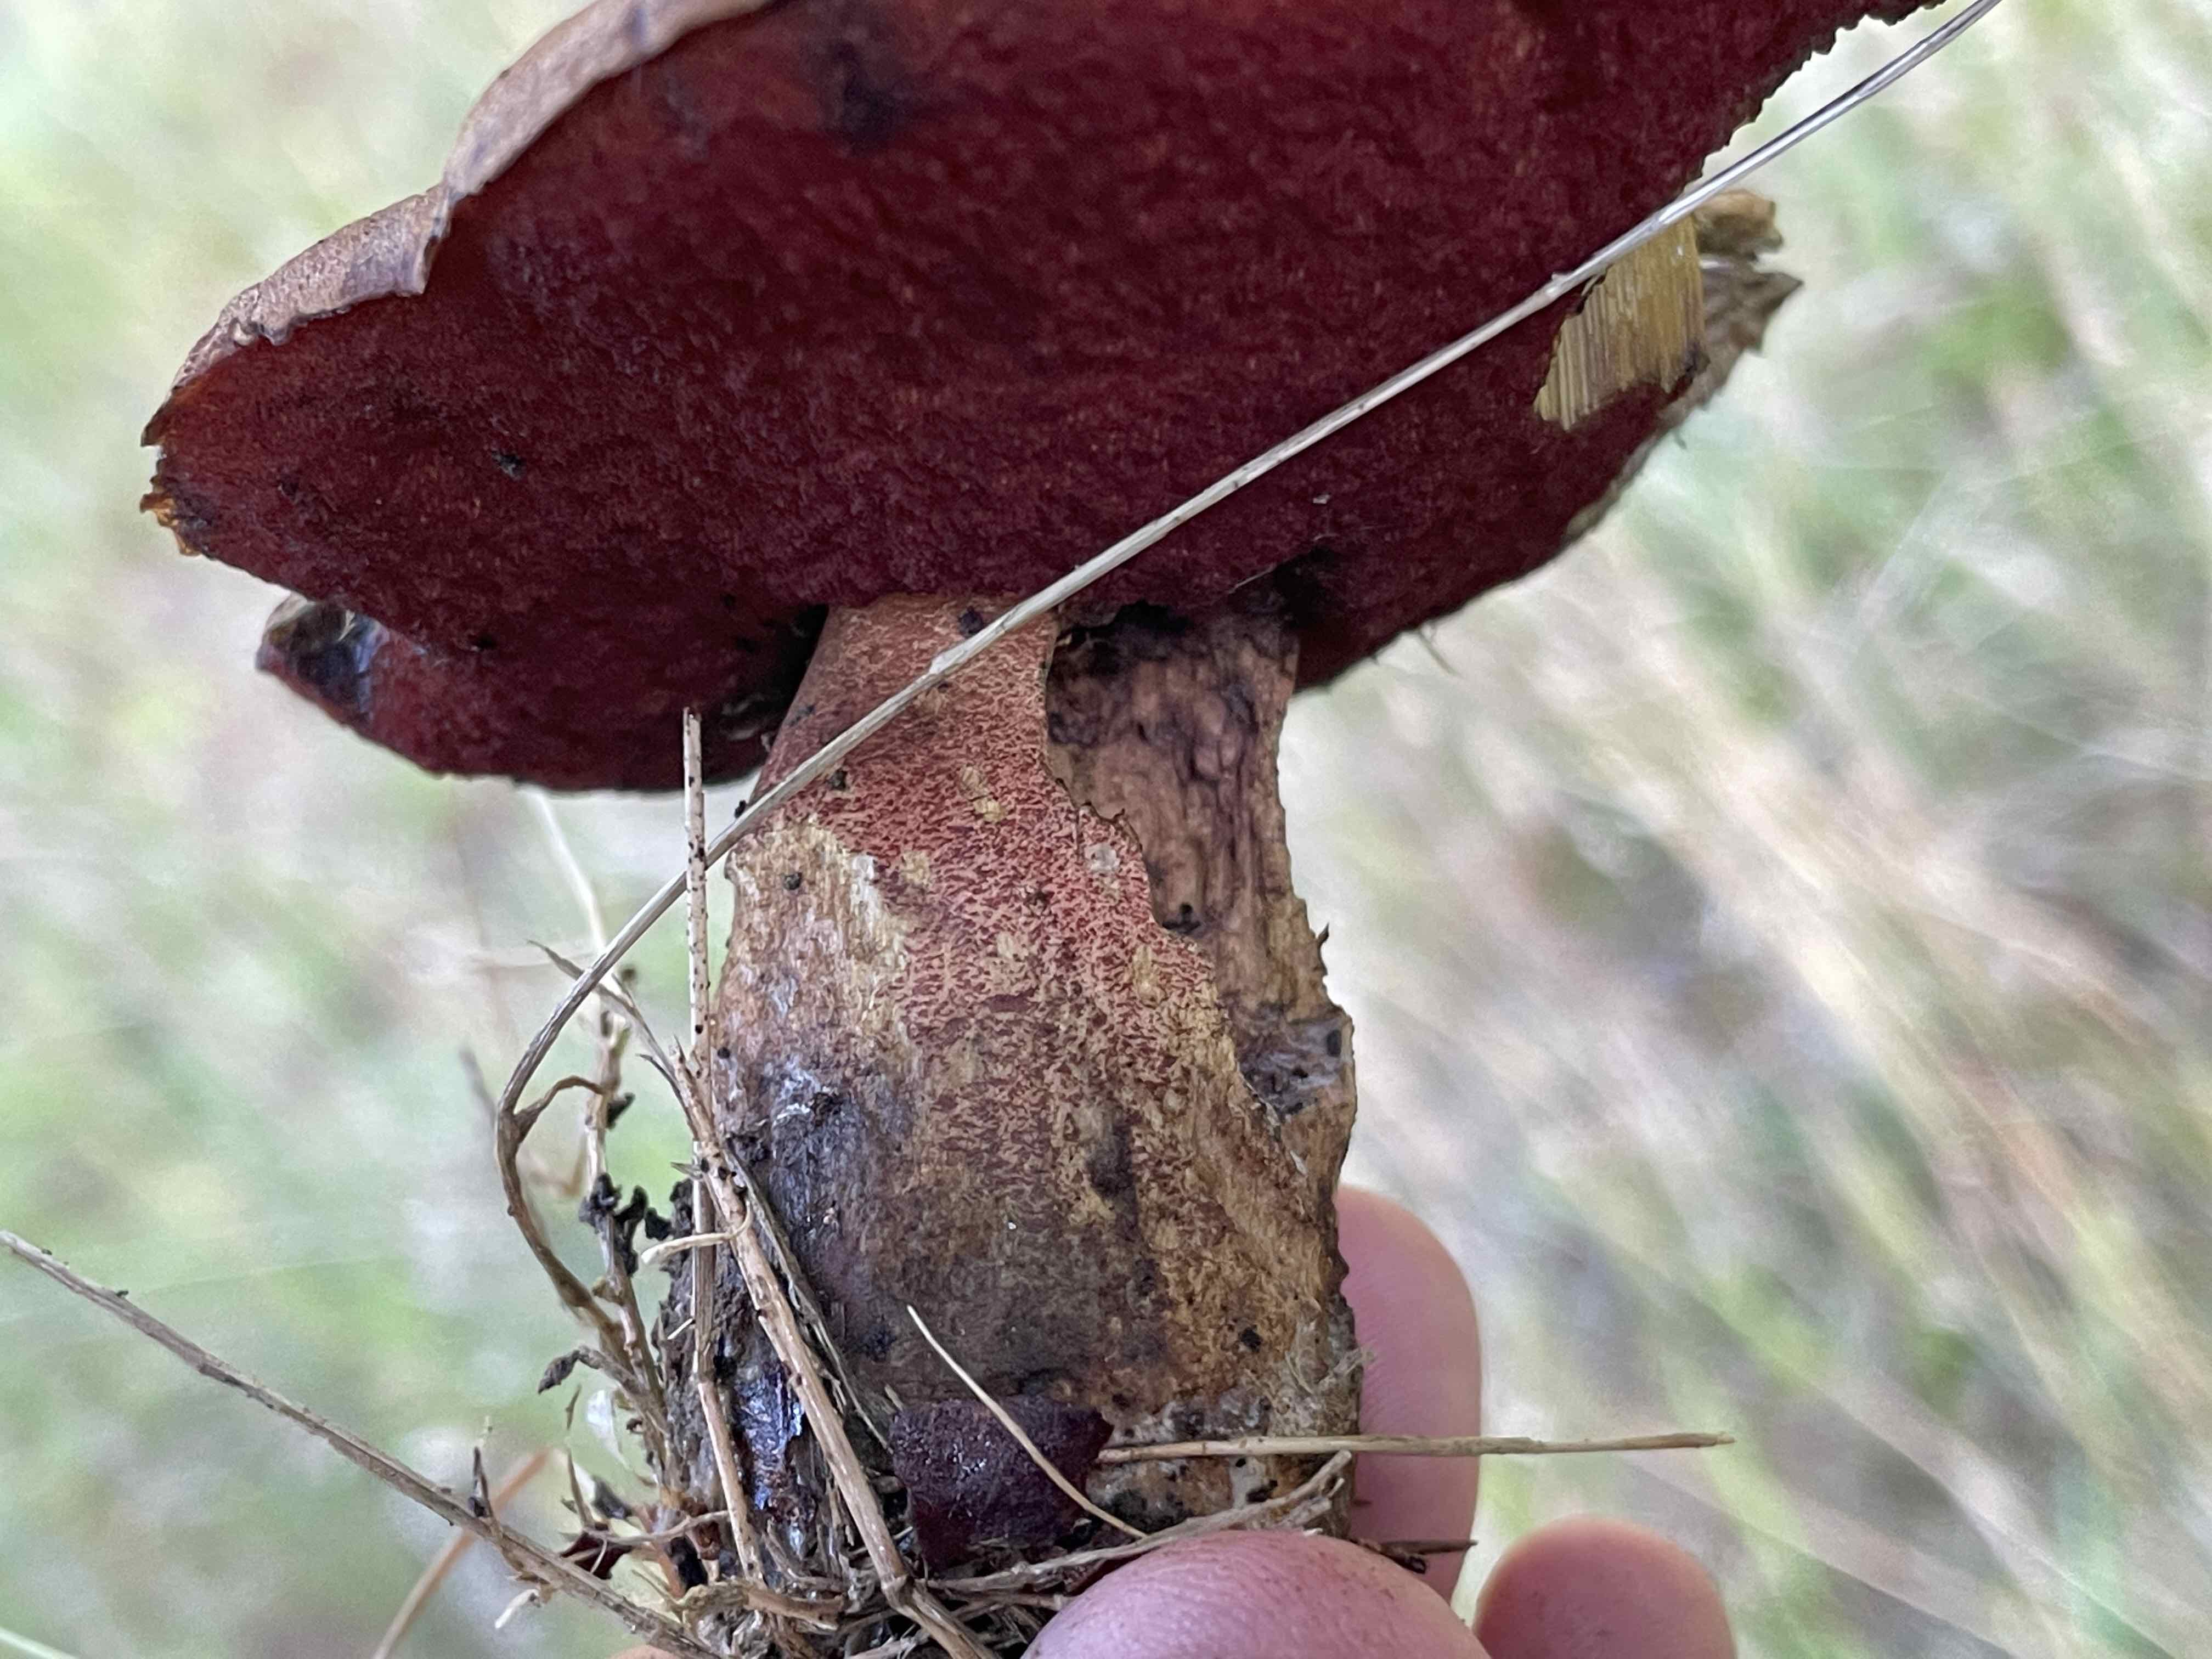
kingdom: Fungi
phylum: Basidiomycota
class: Agaricomycetes
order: Boletales
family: Boletaceae
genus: Neoboletus
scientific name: Neoboletus erythropus
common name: punktstokket indigorørhat
